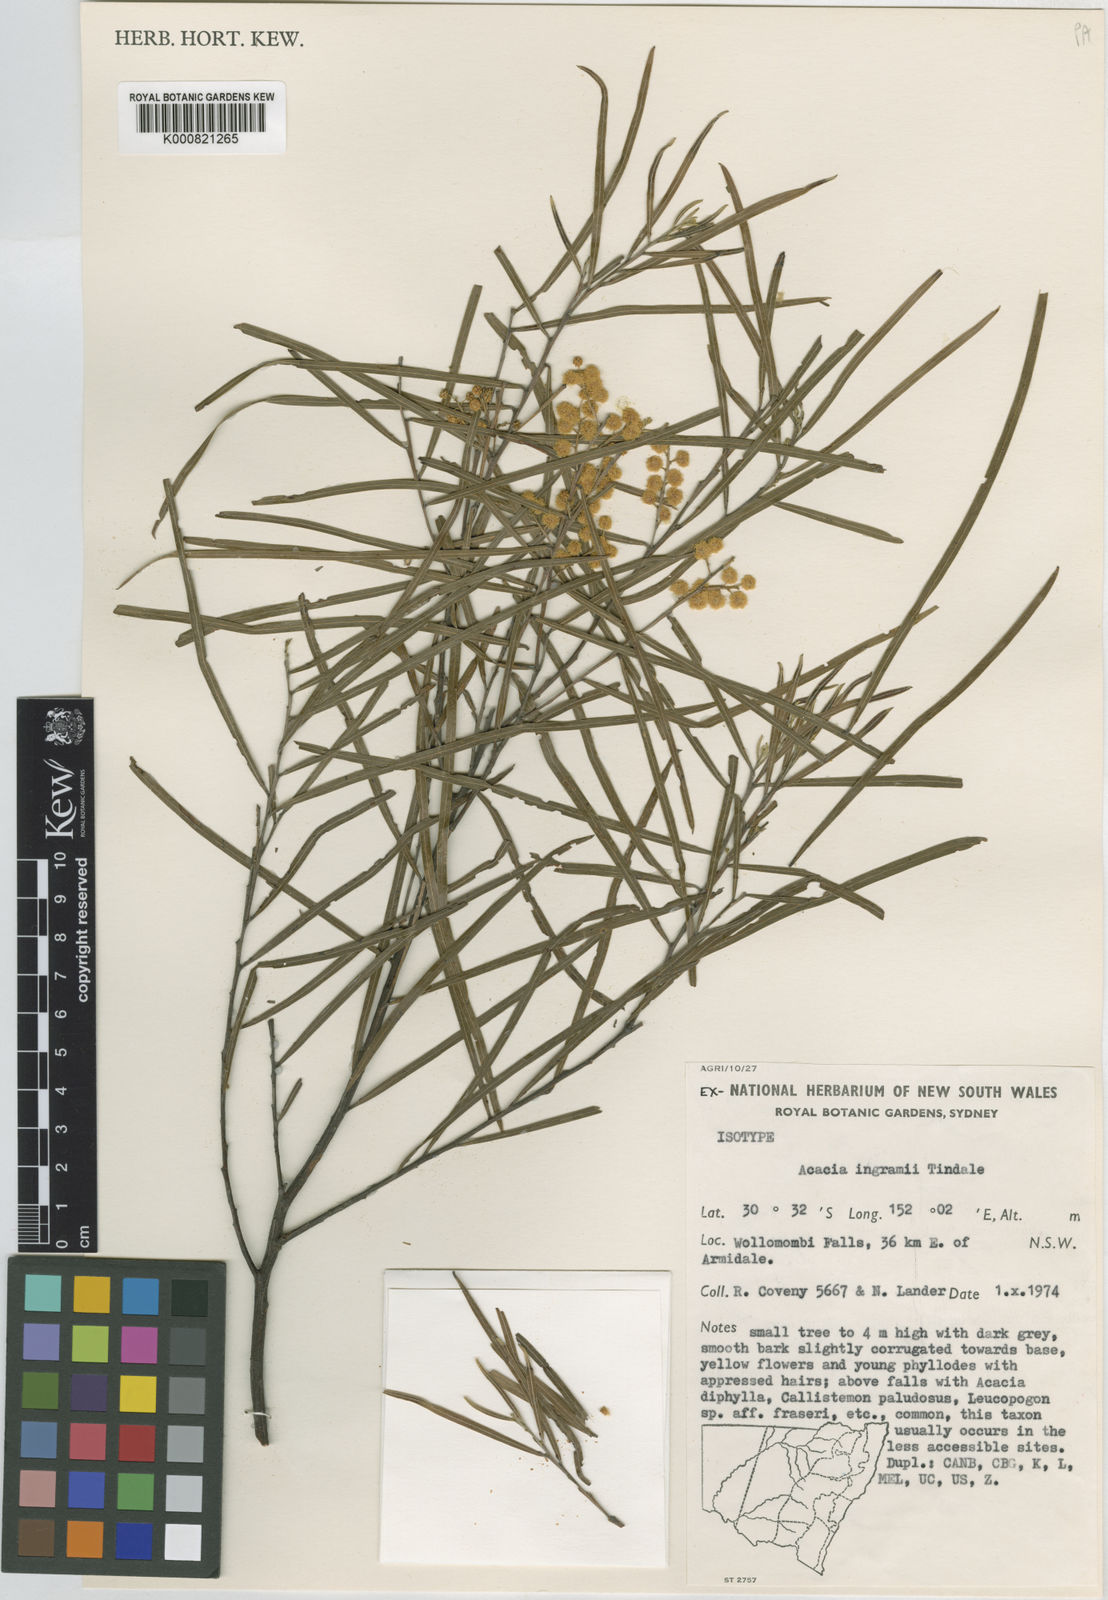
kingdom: Plantae
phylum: Tracheophyta
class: Magnoliopsida
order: Fabales
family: Fabaceae
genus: Acacia
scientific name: Acacia ingramii
